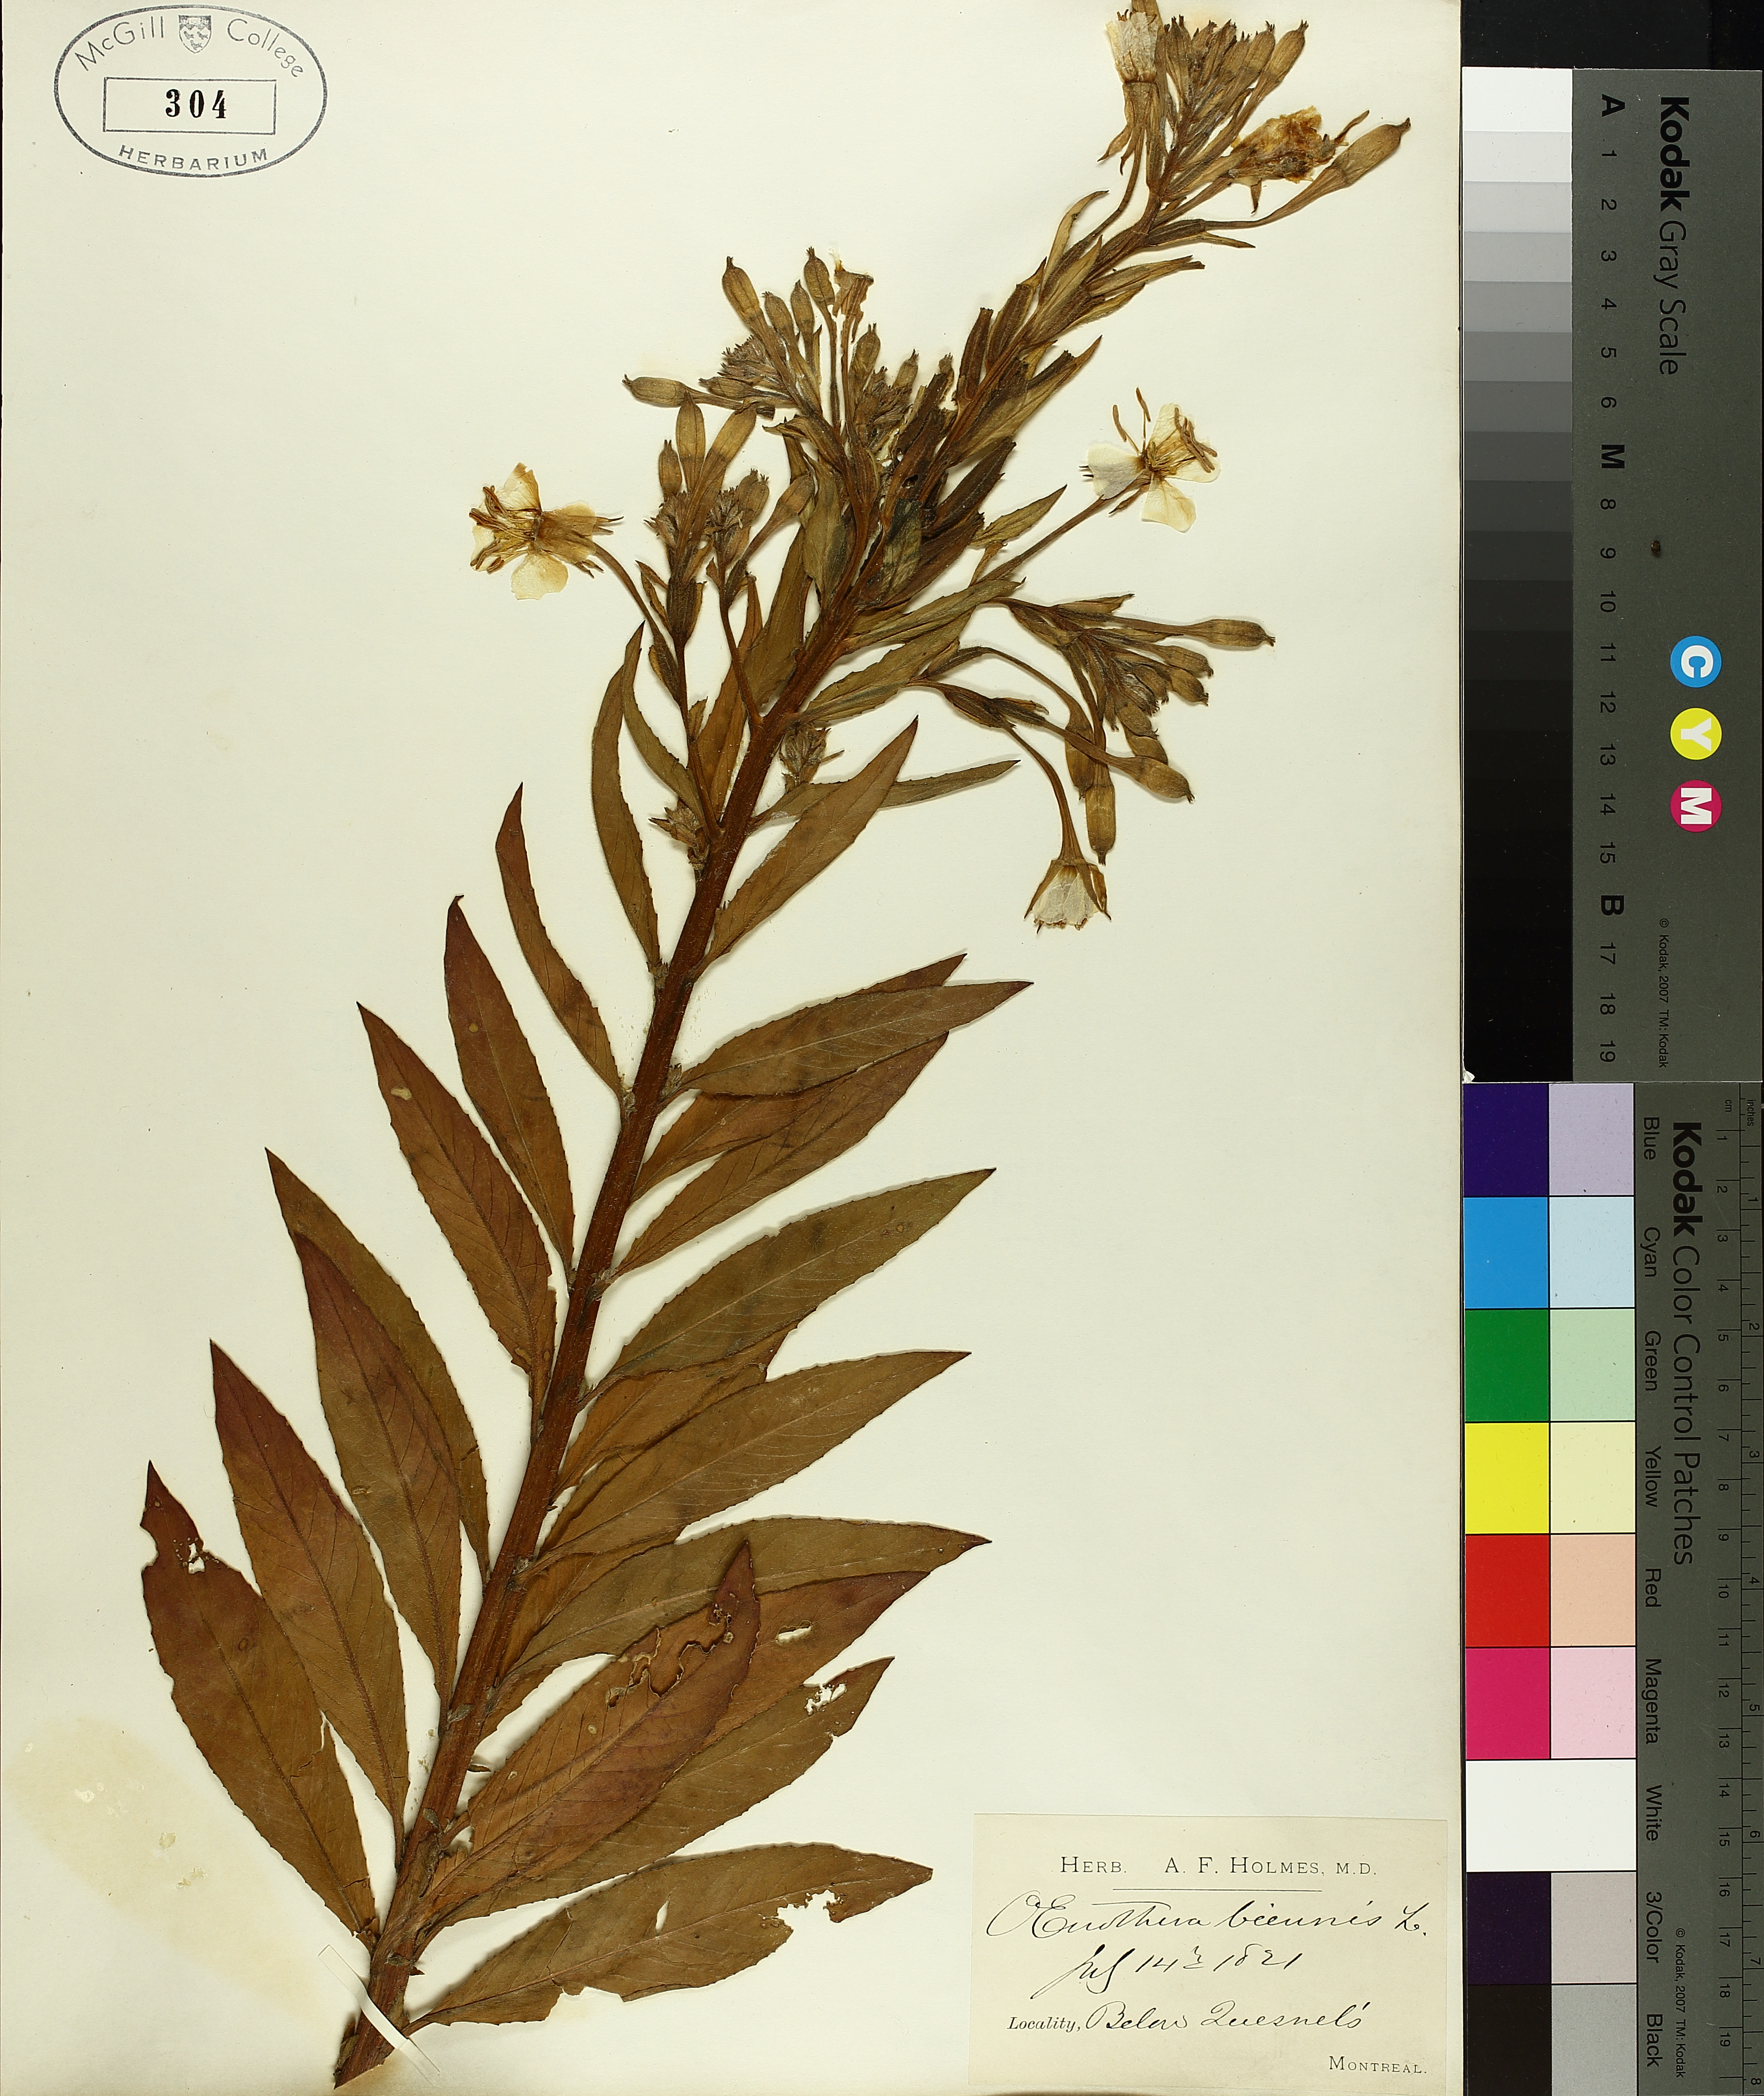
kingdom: Plantae
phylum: Tracheophyta
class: Magnoliopsida
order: Myrtales
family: Onagraceae
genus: Oenothera
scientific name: Oenothera biennis
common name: Common evening-primrose
